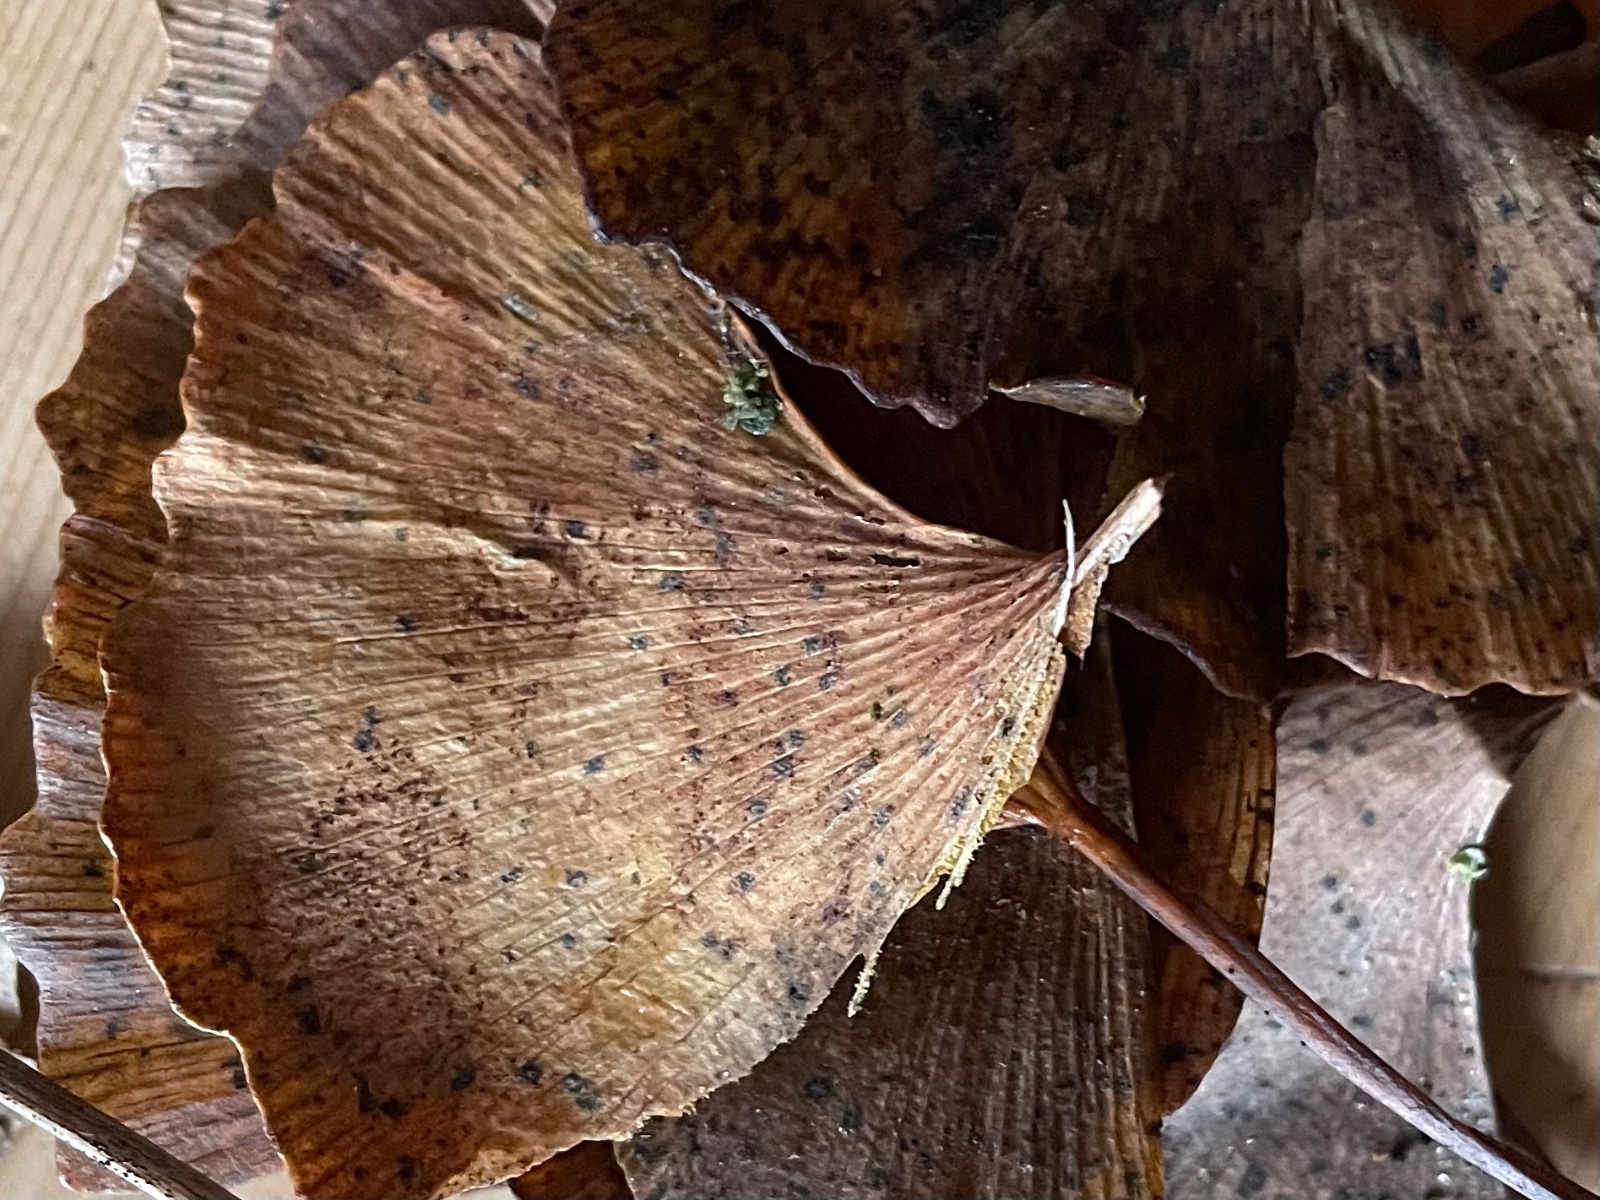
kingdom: Fungi
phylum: Basidiomycota
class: Wallemiomycetes
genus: Bartheletia
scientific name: Bartheletia paradoxa
